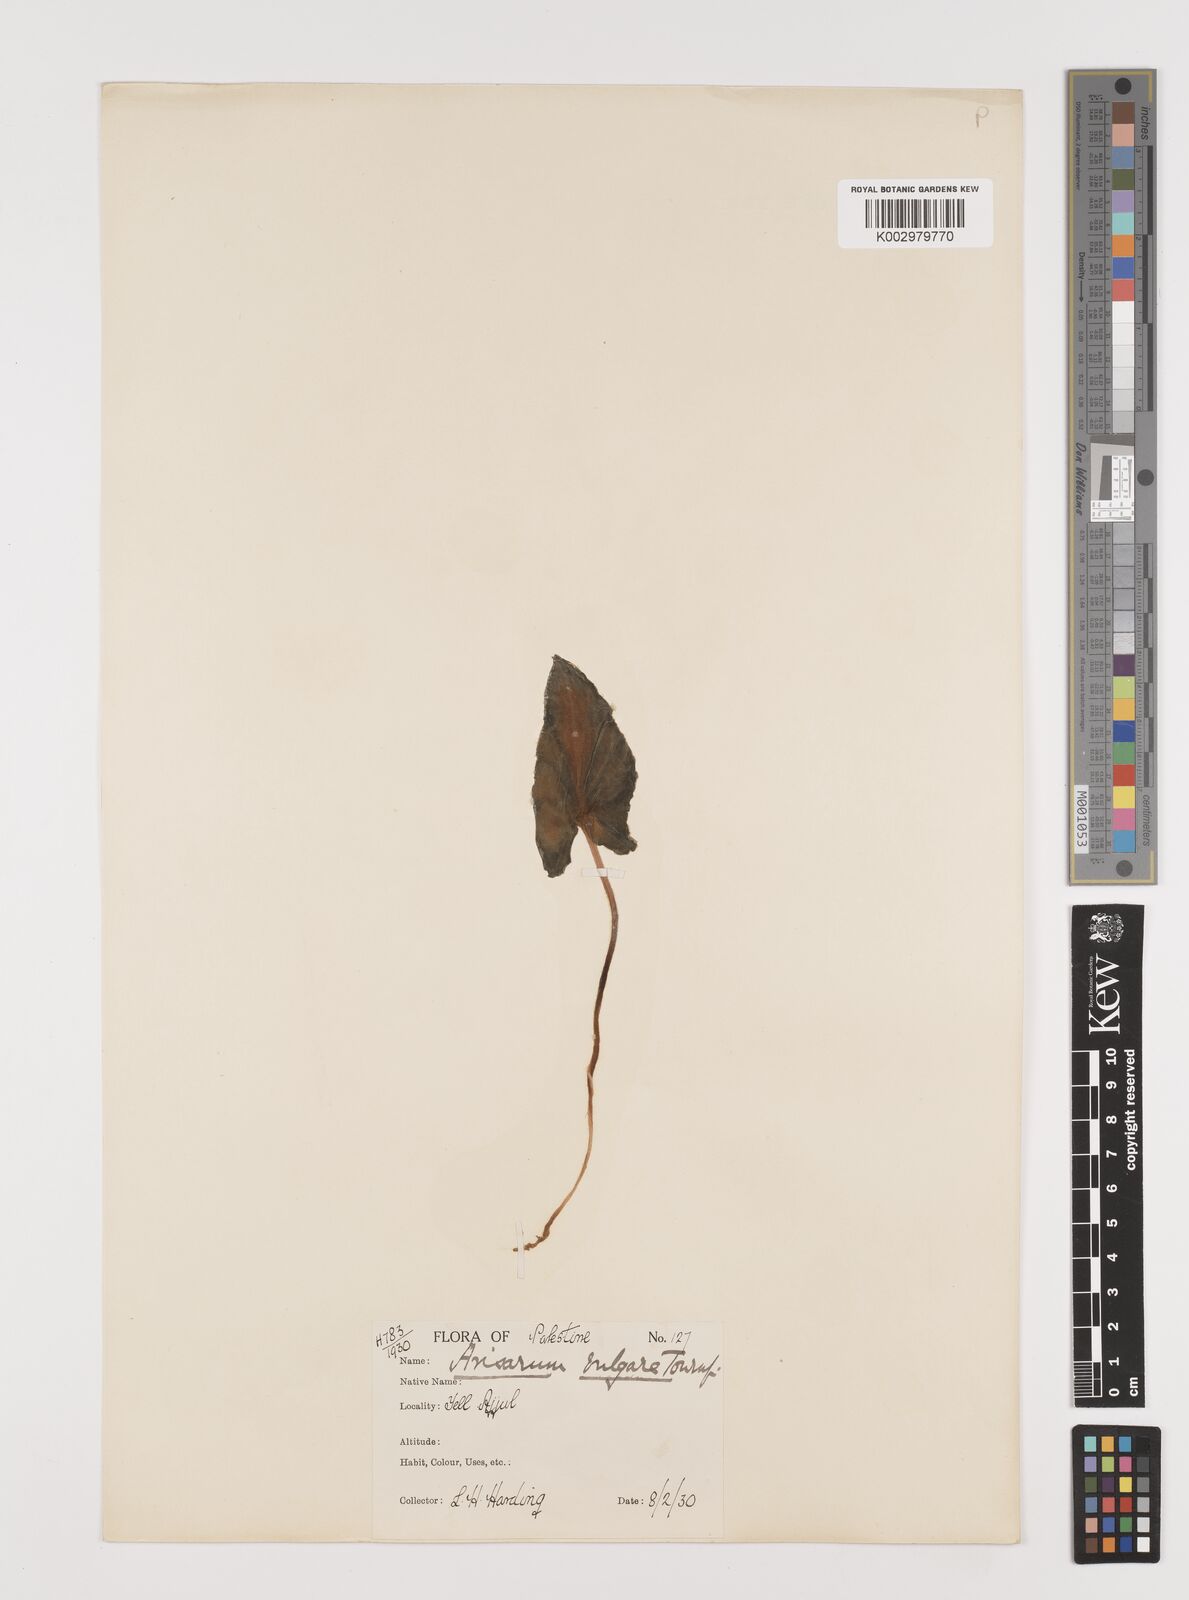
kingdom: Plantae
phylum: Tracheophyta
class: Liliopsida
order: Alismatales
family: Araceae
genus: Arisarum
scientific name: Arisarum vulgare
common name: Common arisarum
